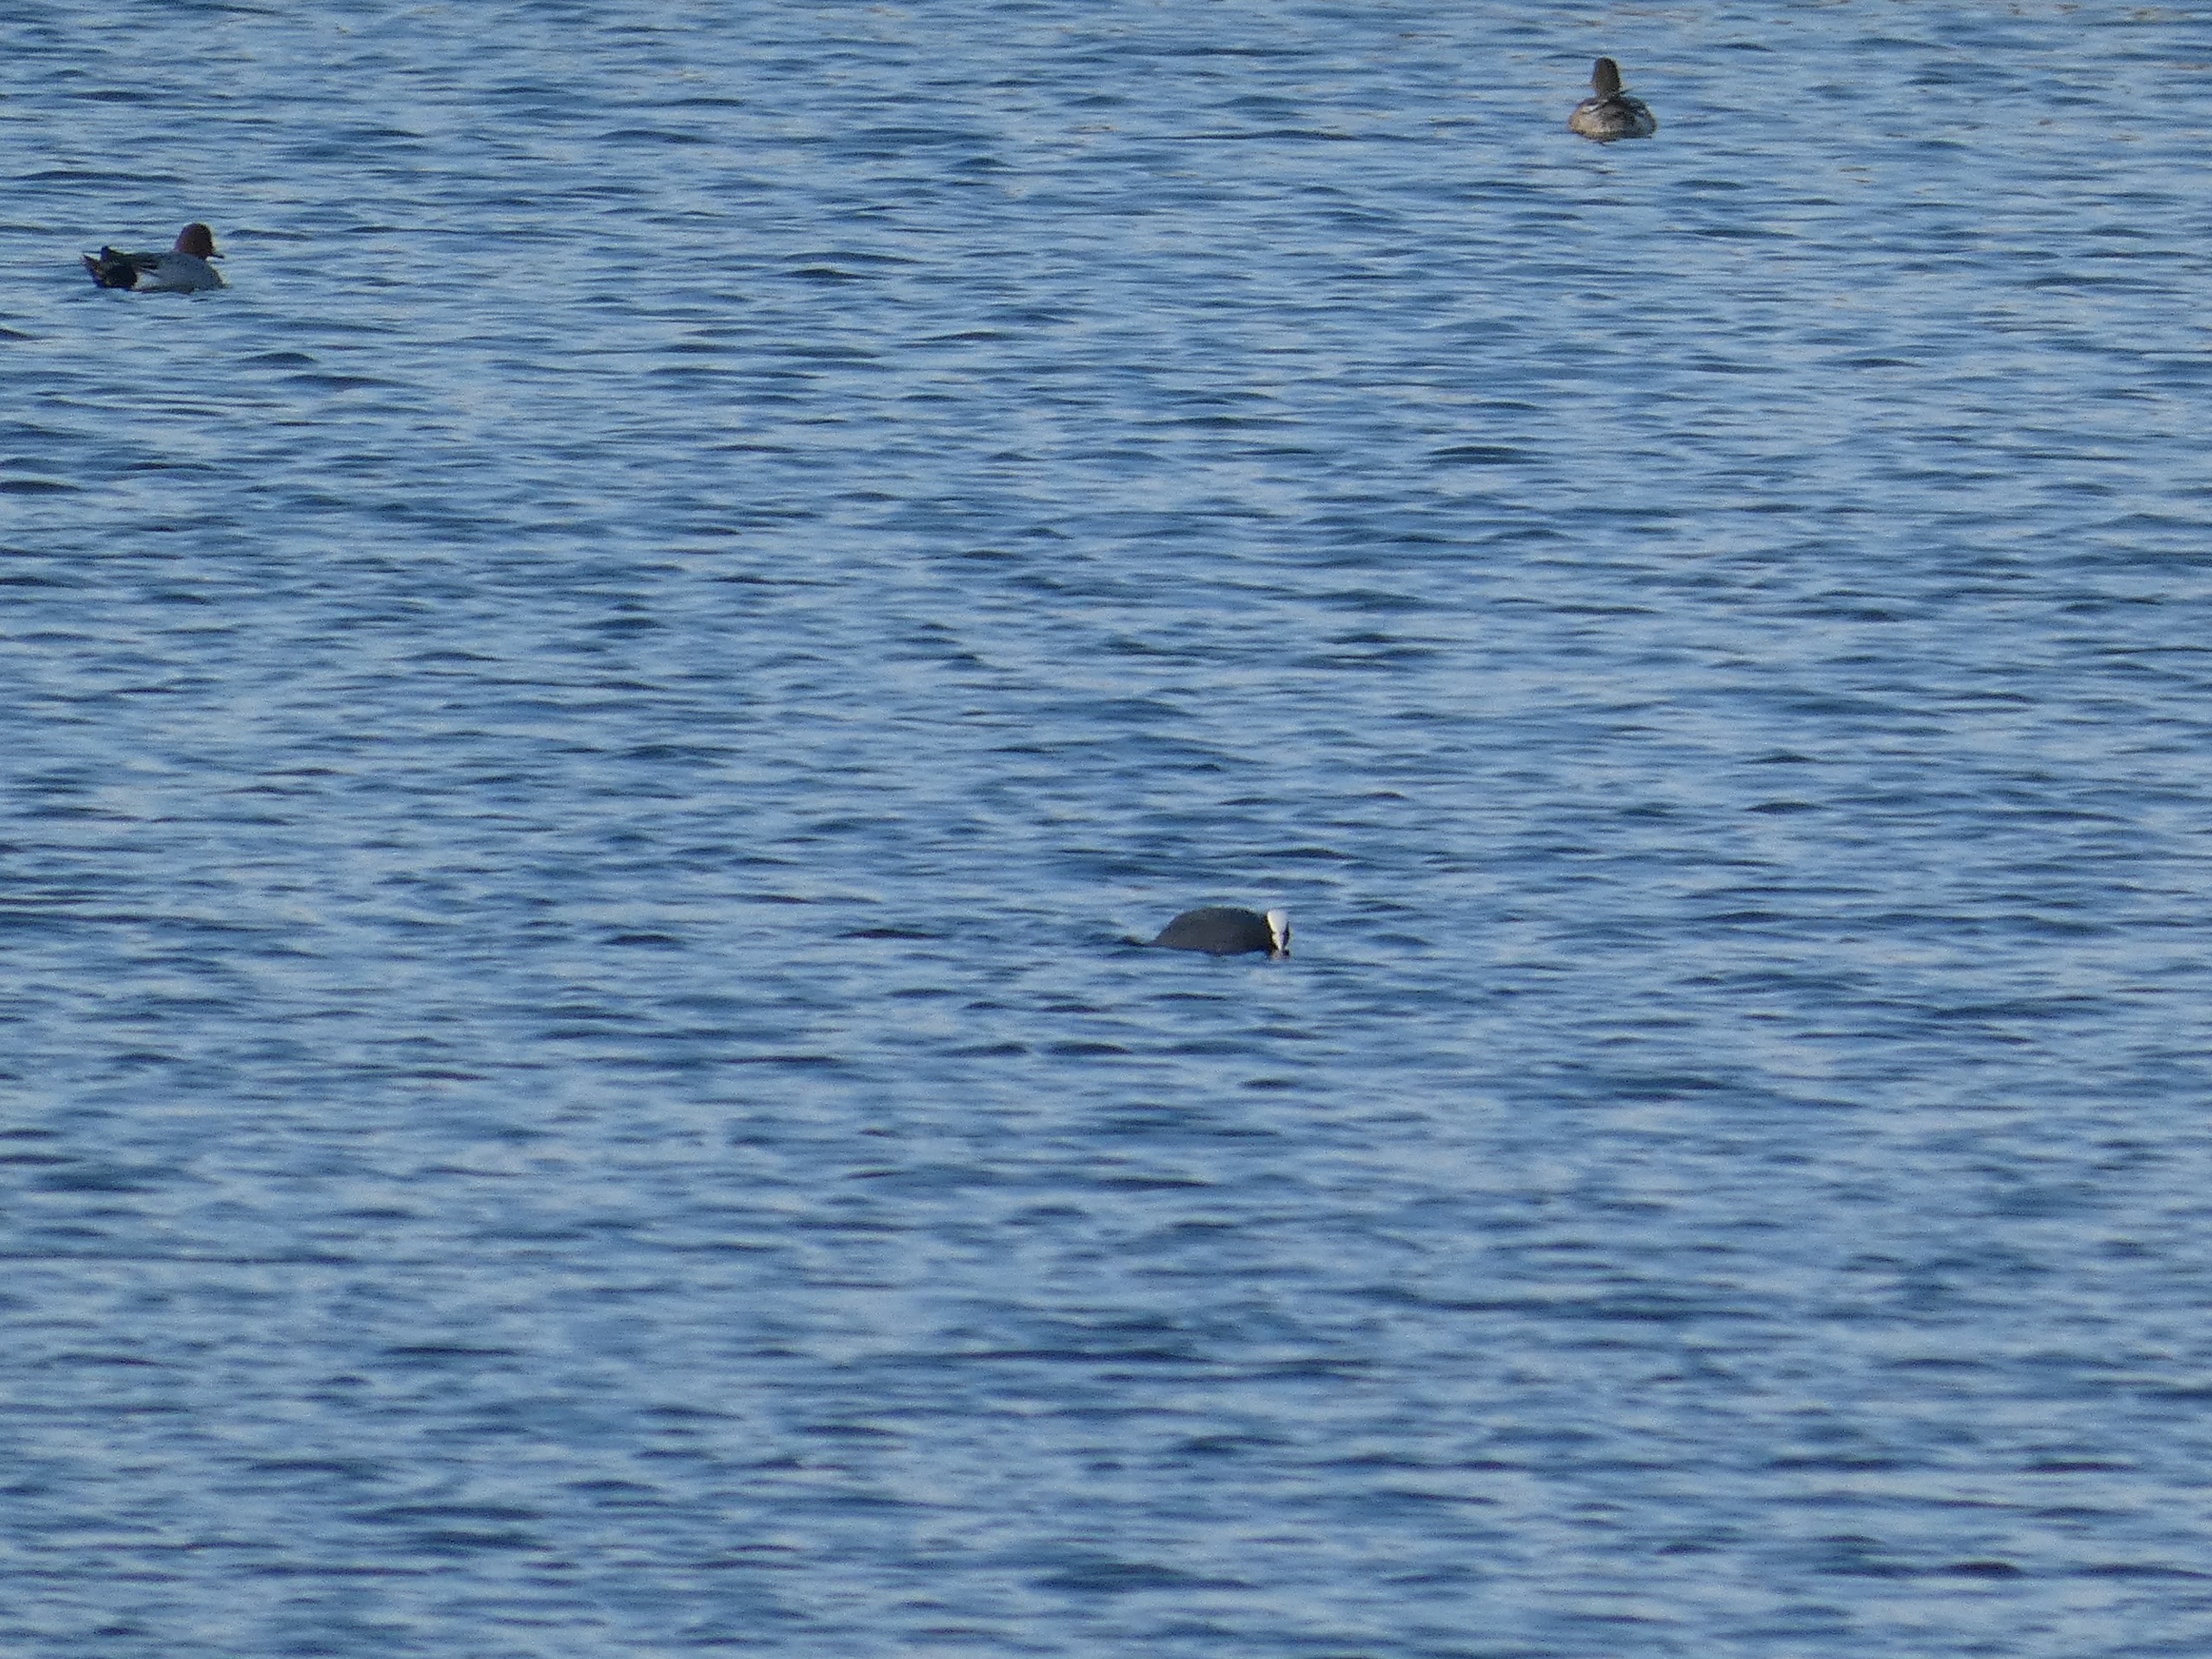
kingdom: Animalia
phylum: Chordata
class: Aves
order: Gruiformes
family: Rallidae
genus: Fulica
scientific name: Fulica atra
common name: Blishøne
